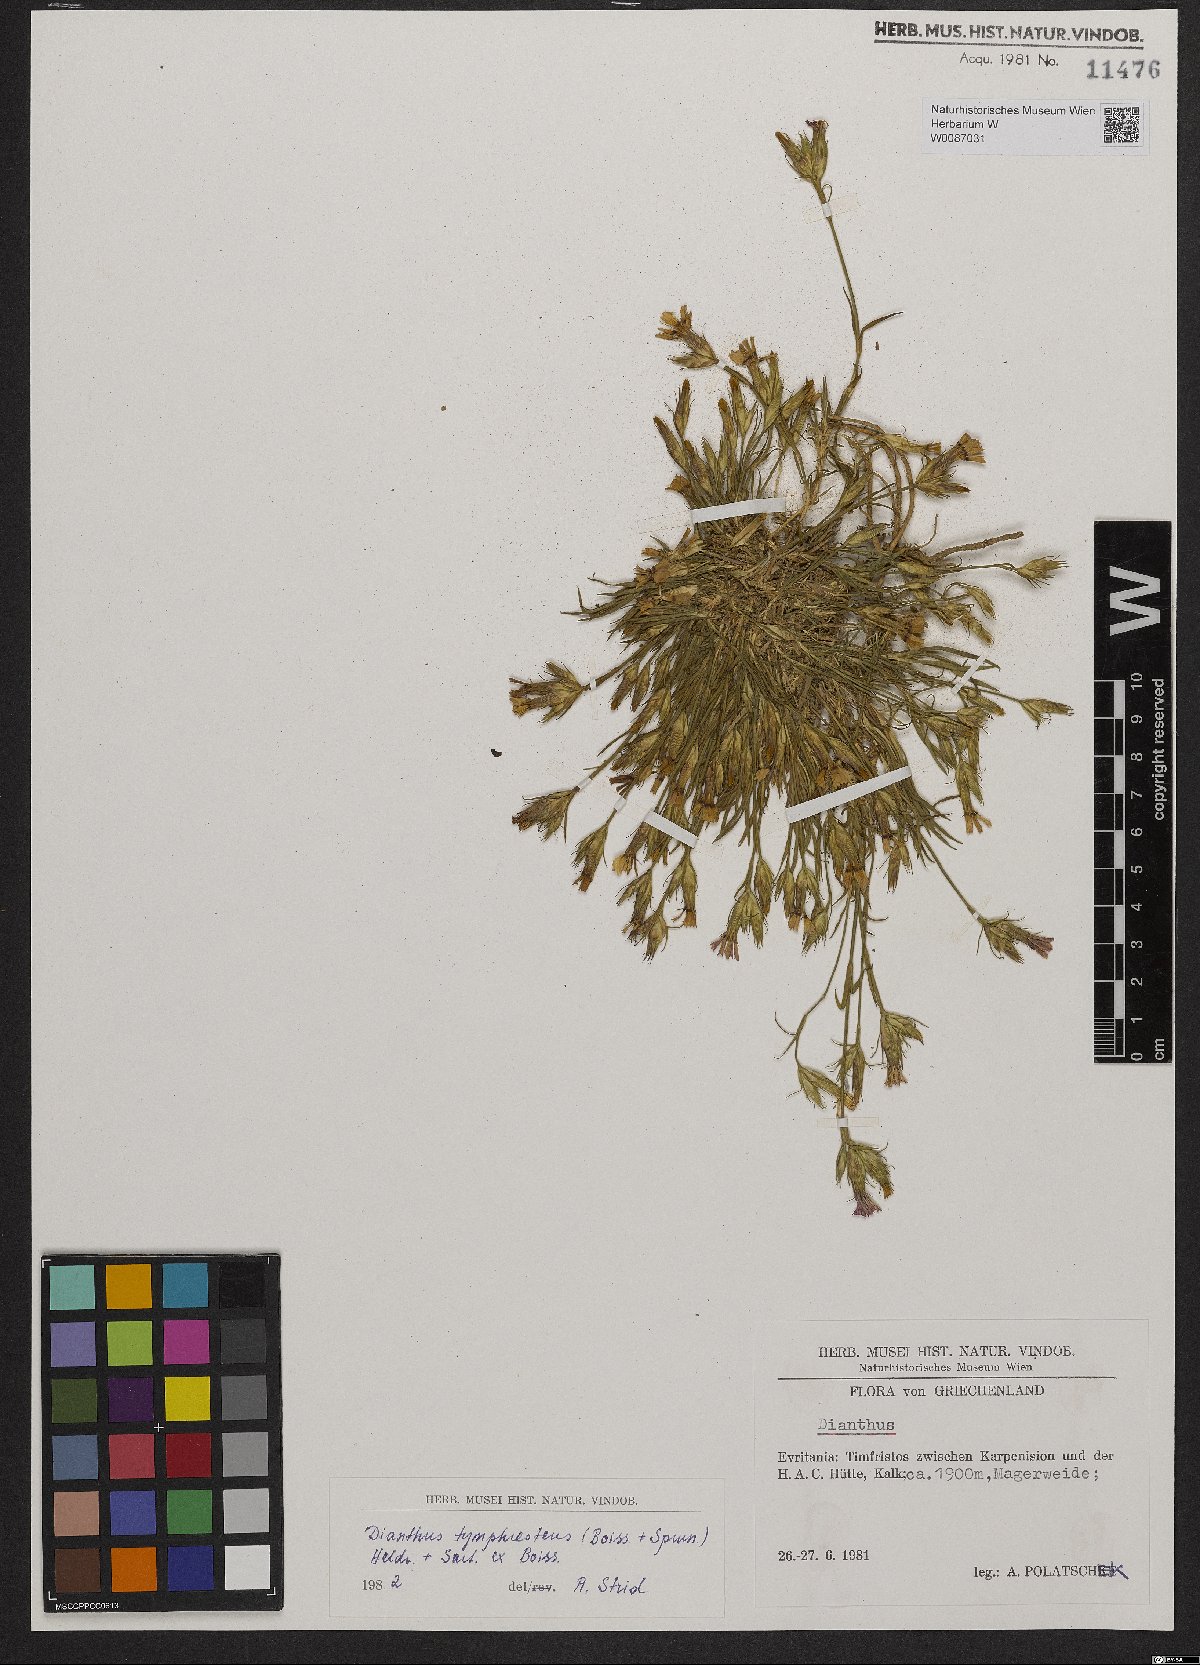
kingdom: Plantae
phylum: Tracheophyta
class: Magnoliopsida
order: Caryophyllales
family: Caryophyllaceae
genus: Dianthus
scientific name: Dianthus tymphresteus
